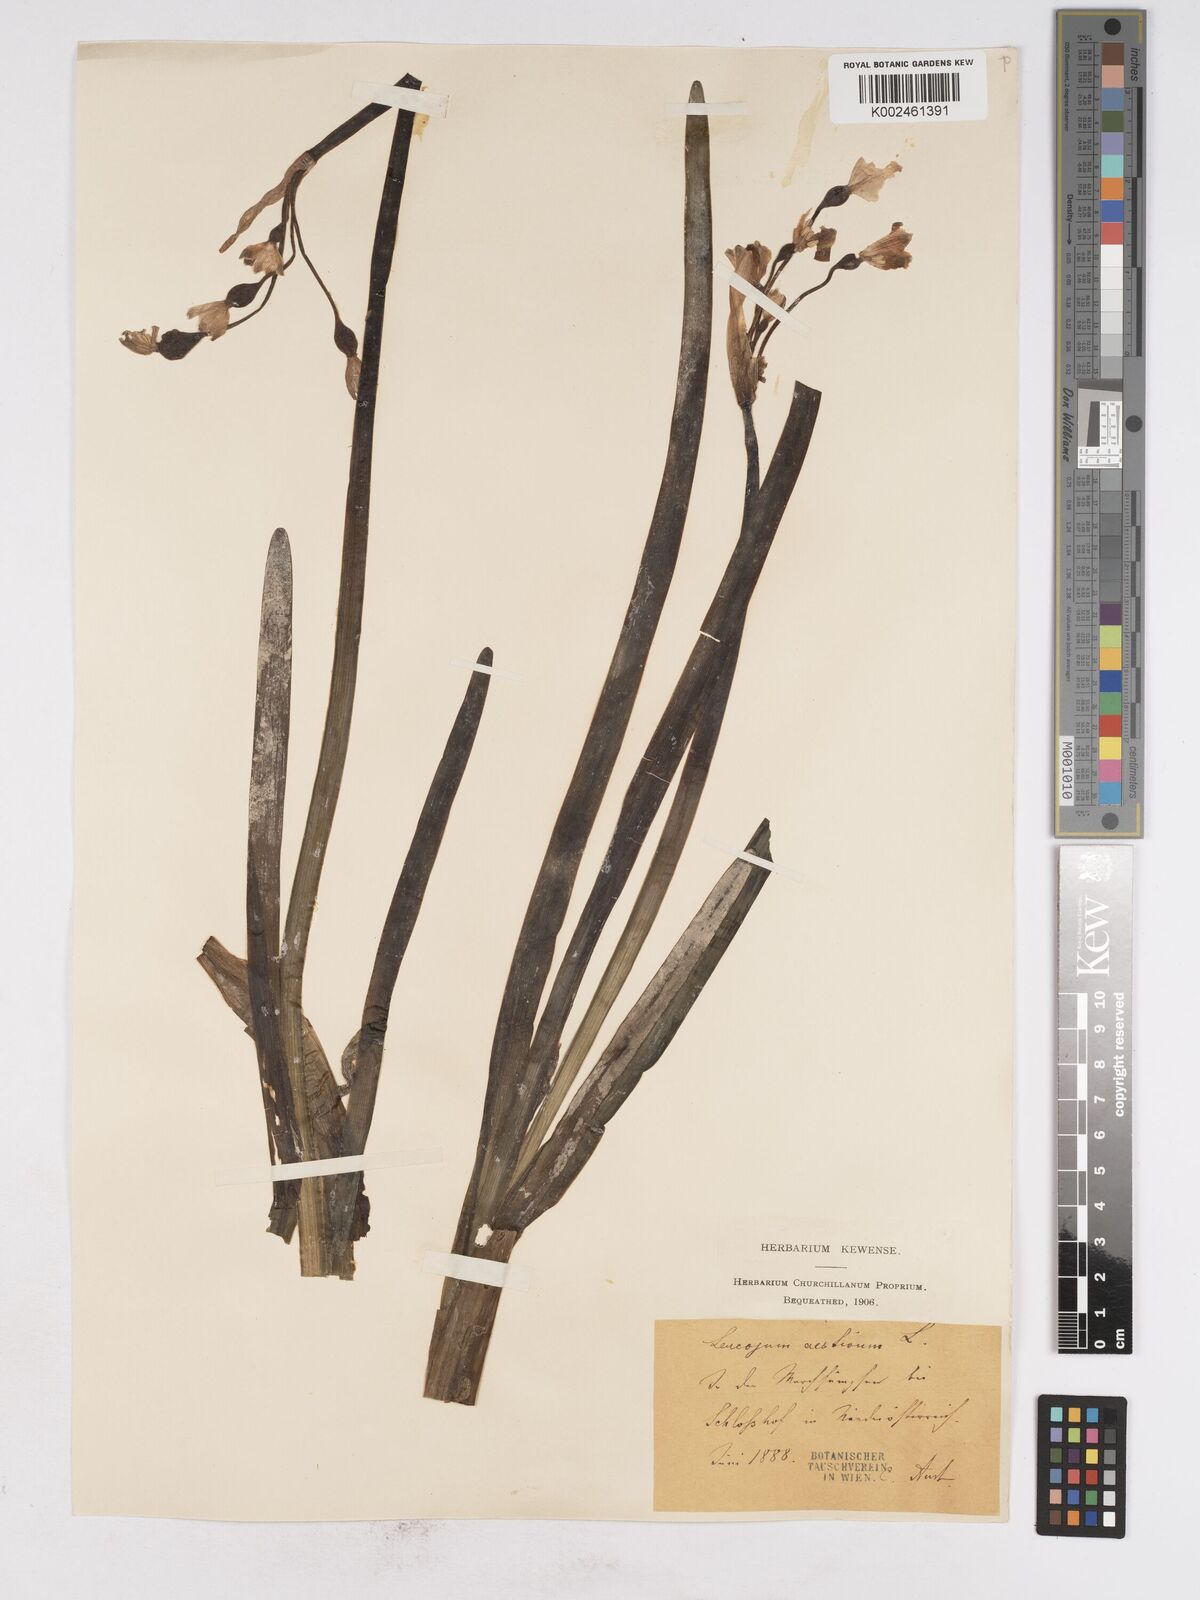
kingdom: Plantae
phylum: Tracheophyta
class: Liliopsida
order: Asparagales
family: Amaryllidaceae
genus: Leucojum
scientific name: Leucojum aestivum
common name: Summer snowflake
